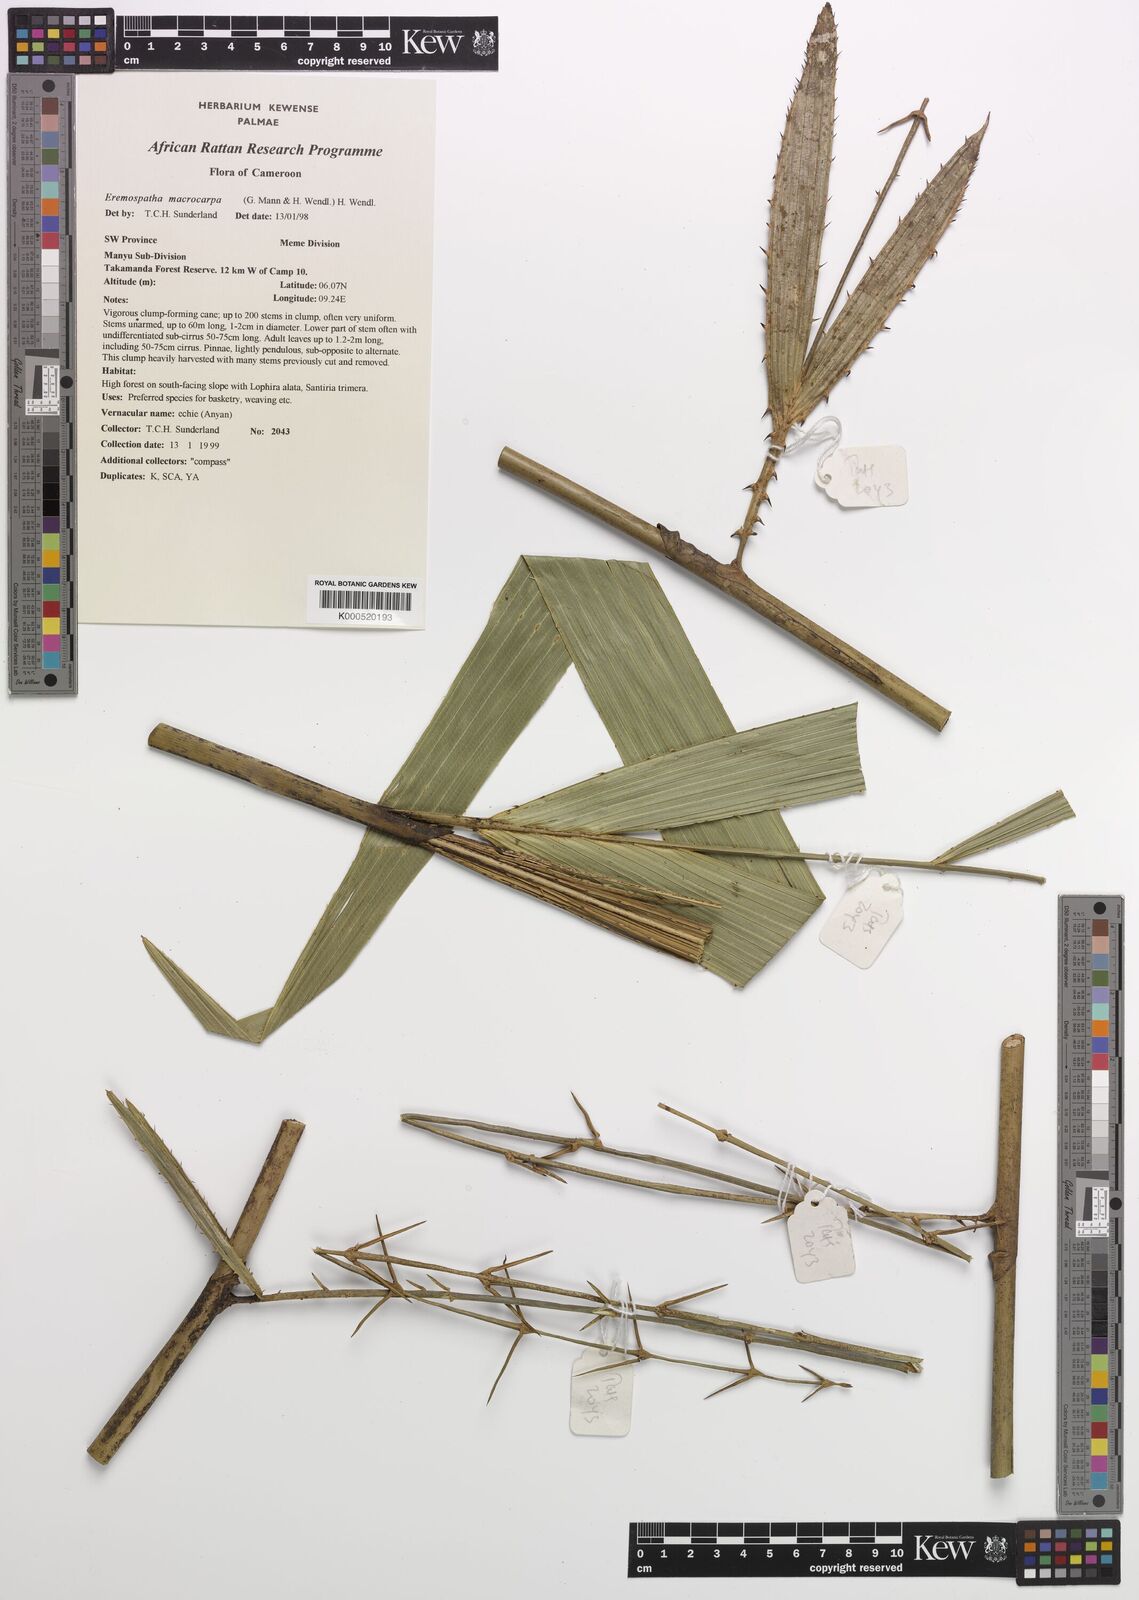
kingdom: Plantae
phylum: Tracheophyta
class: Liliopsida
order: Arecales
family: Arecaceae
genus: Eremospatha
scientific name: Eremospatha
